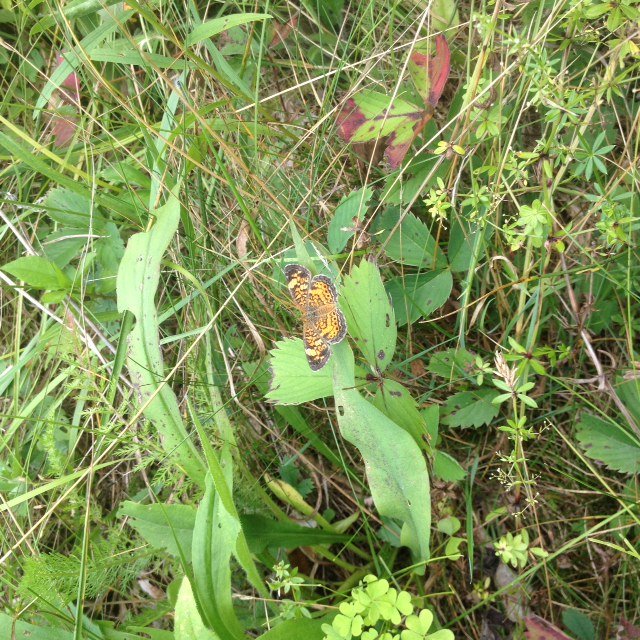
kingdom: Animalia
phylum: Arthropoda
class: Insecta
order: Lepidoptera
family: Nymphalidae
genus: Phyciodes
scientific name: Phyciodes
